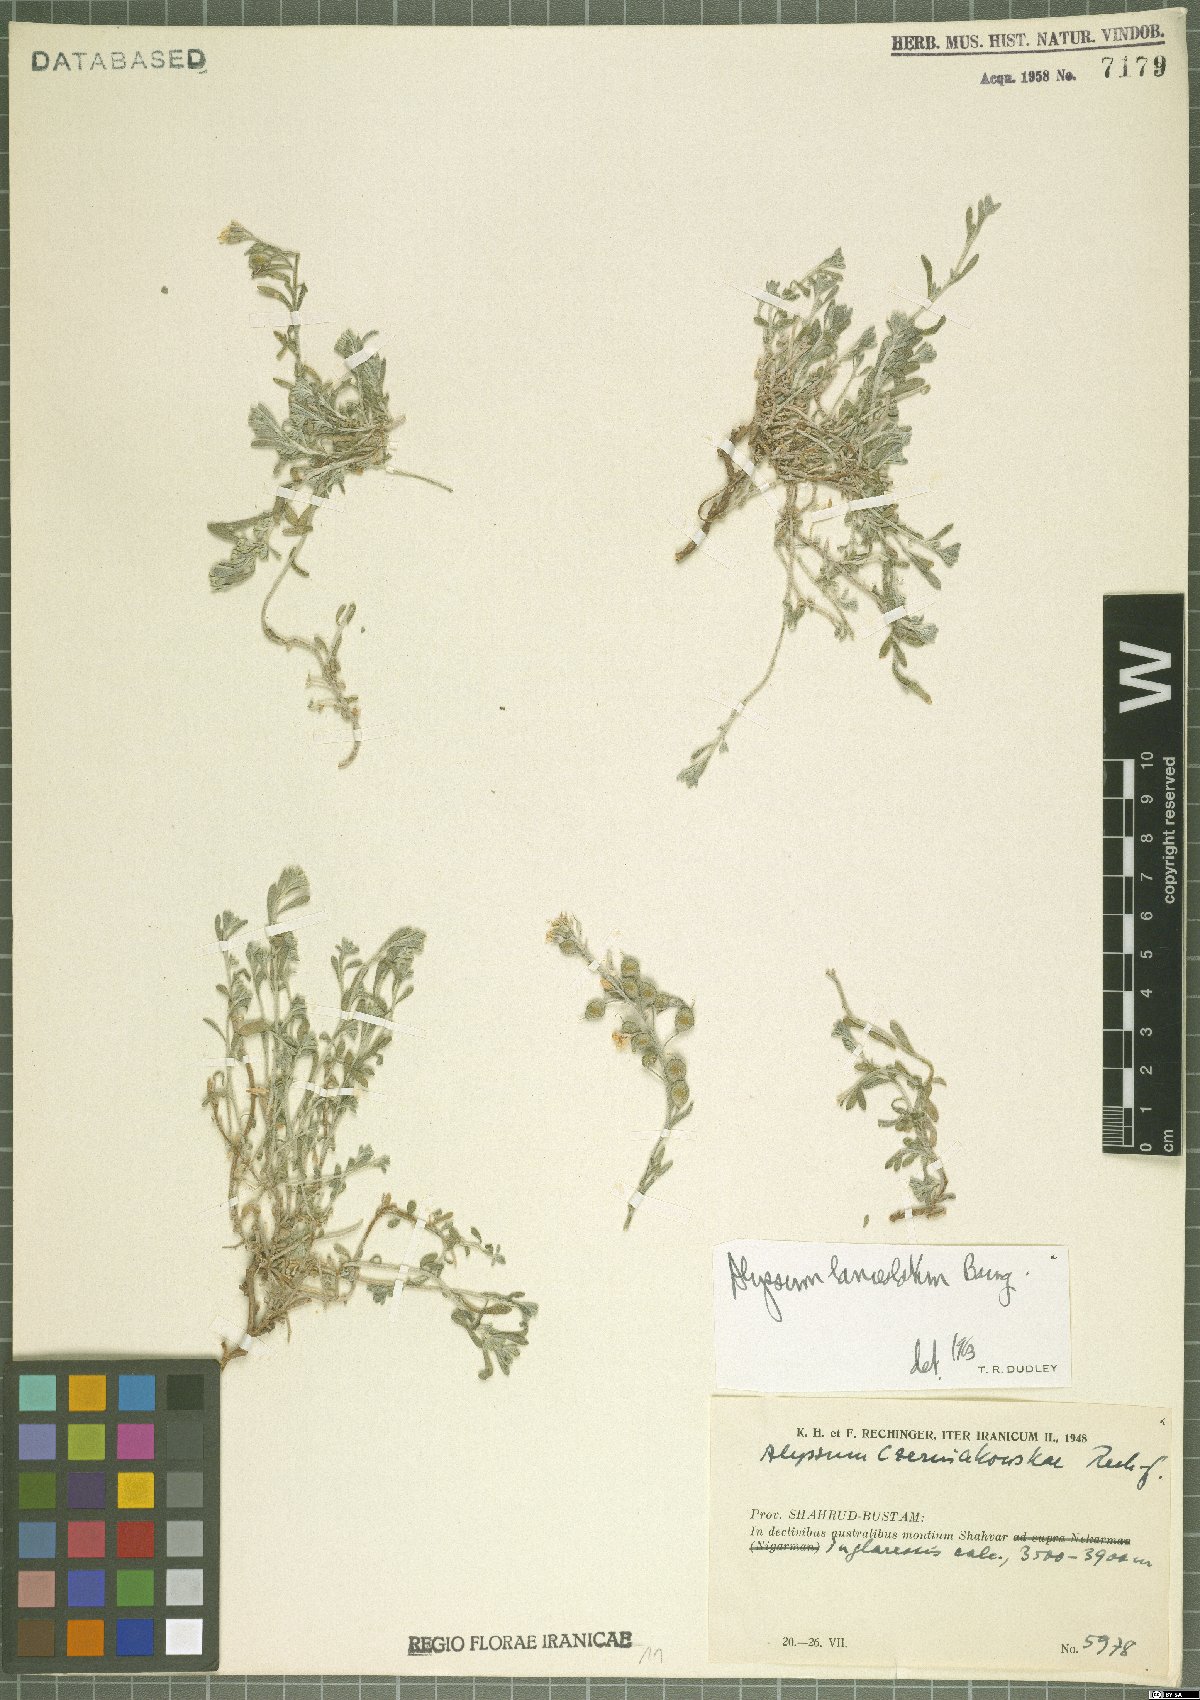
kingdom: Plantae
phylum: Tracheophyta
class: Magnoliopsida
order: Brassicales
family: Brassicaceae
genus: Alyssum
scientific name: Alyssum lanceolatum
